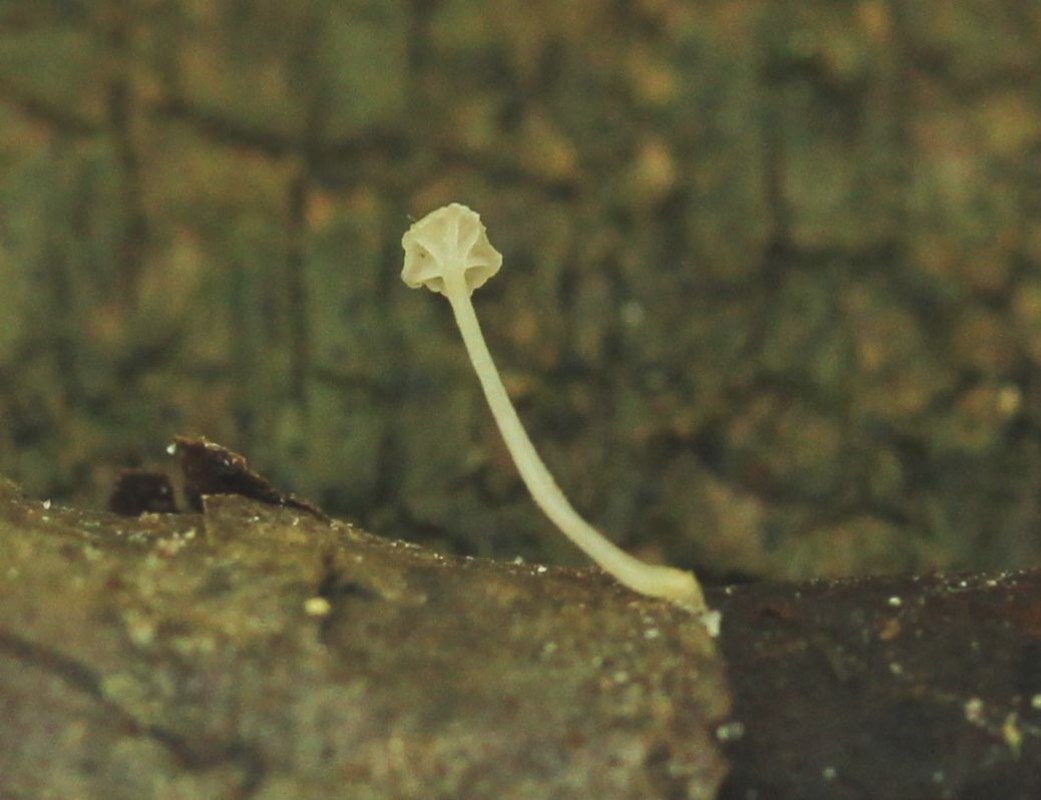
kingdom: Fungi
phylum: Basidiomycota
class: Agaricomycetes
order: Agaricales
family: Porotheleaceae
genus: Phloeomana
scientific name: Phloeomana speirea
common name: kvist-huesvamp
